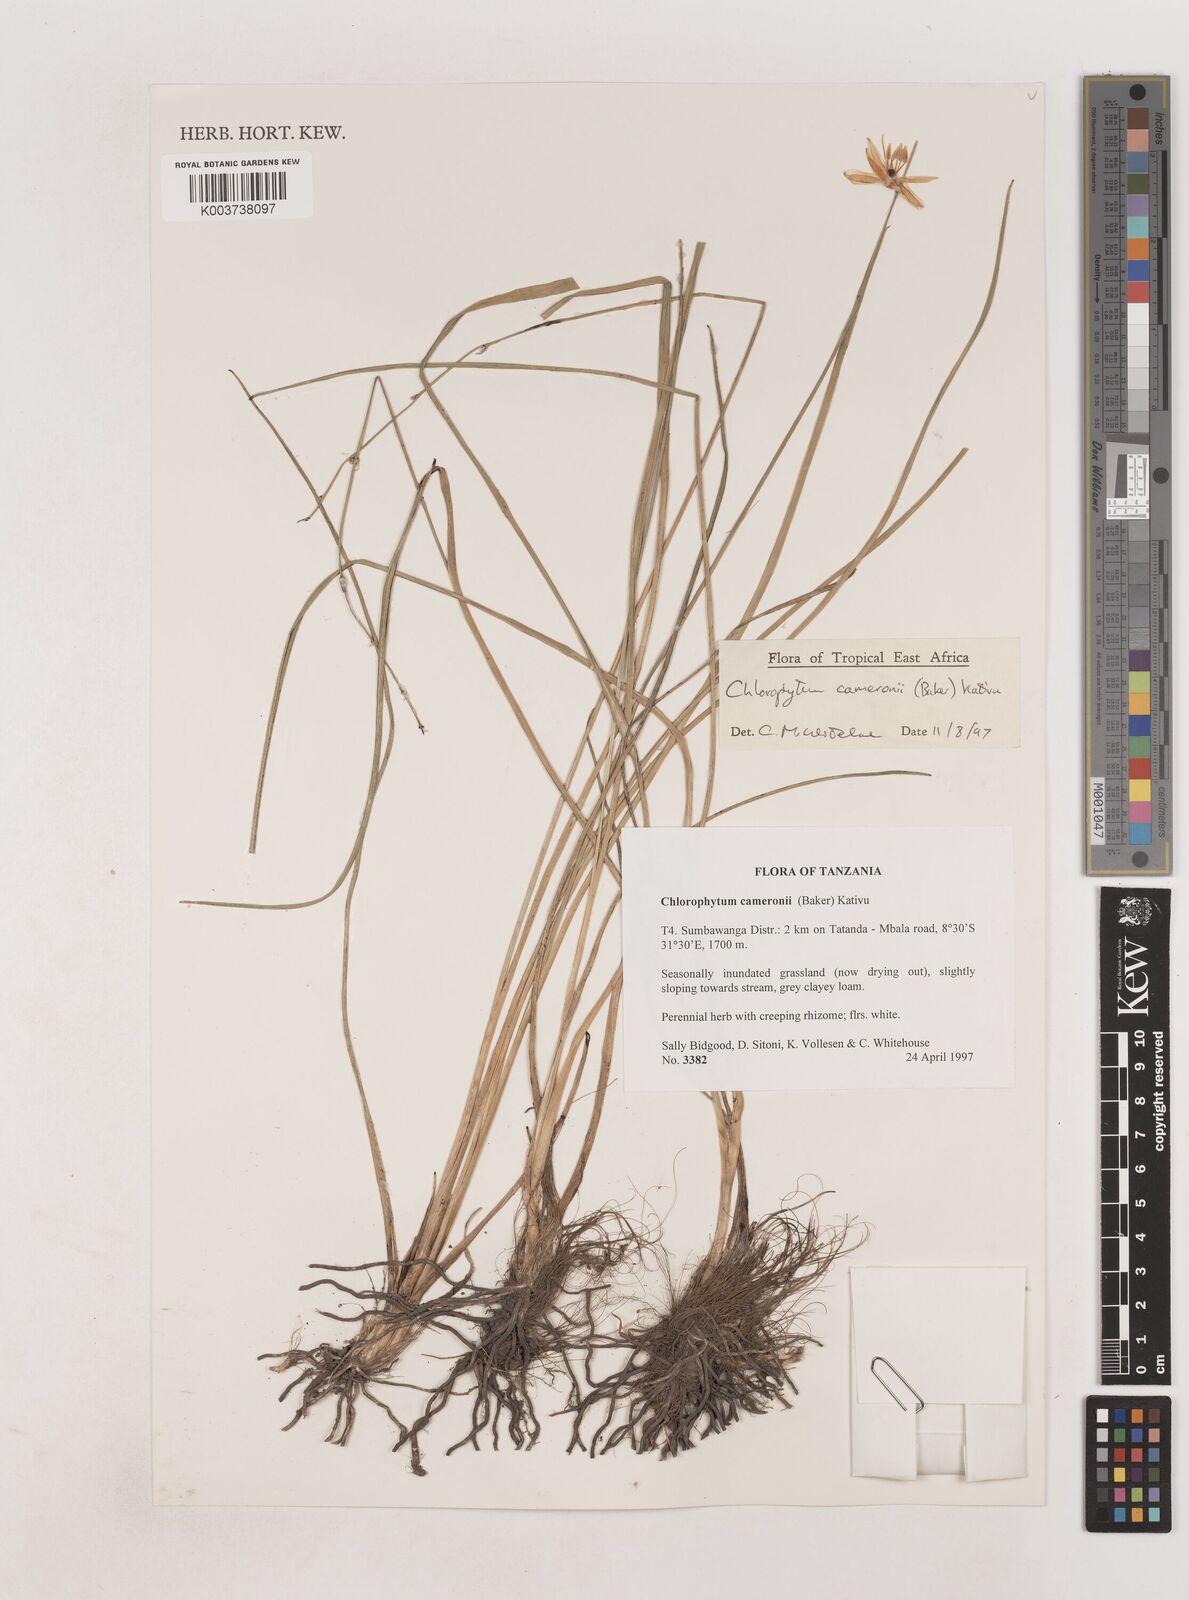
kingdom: Plantae
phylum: Tracheophyta
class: Liliopsida
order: Asparagales
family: Asparagaceae
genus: Chlorophytum
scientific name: Chlorophytum cameronii
